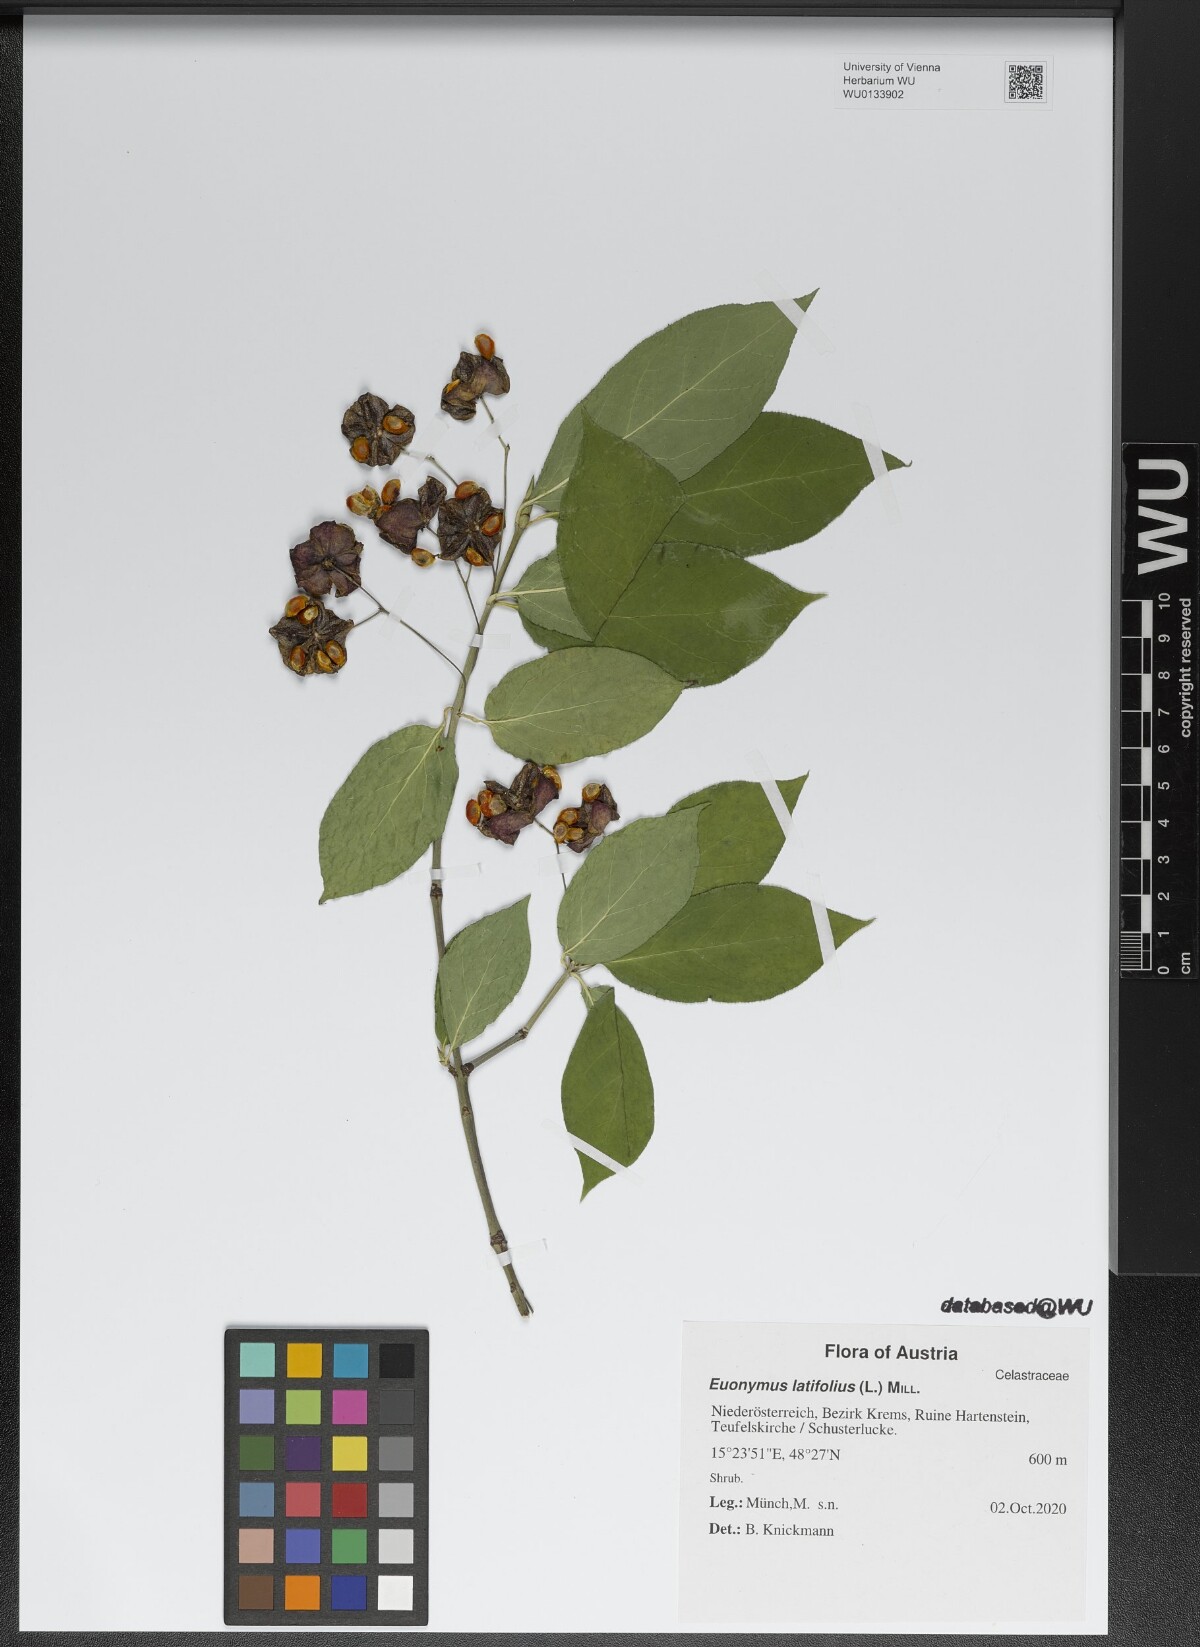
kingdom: Plantae
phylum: Tracheophyta
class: Magnoliopsida
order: Celastrales
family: Celastraceae
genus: Euonymus
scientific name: Euonymus latifolius
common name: Large-leaved spindle
